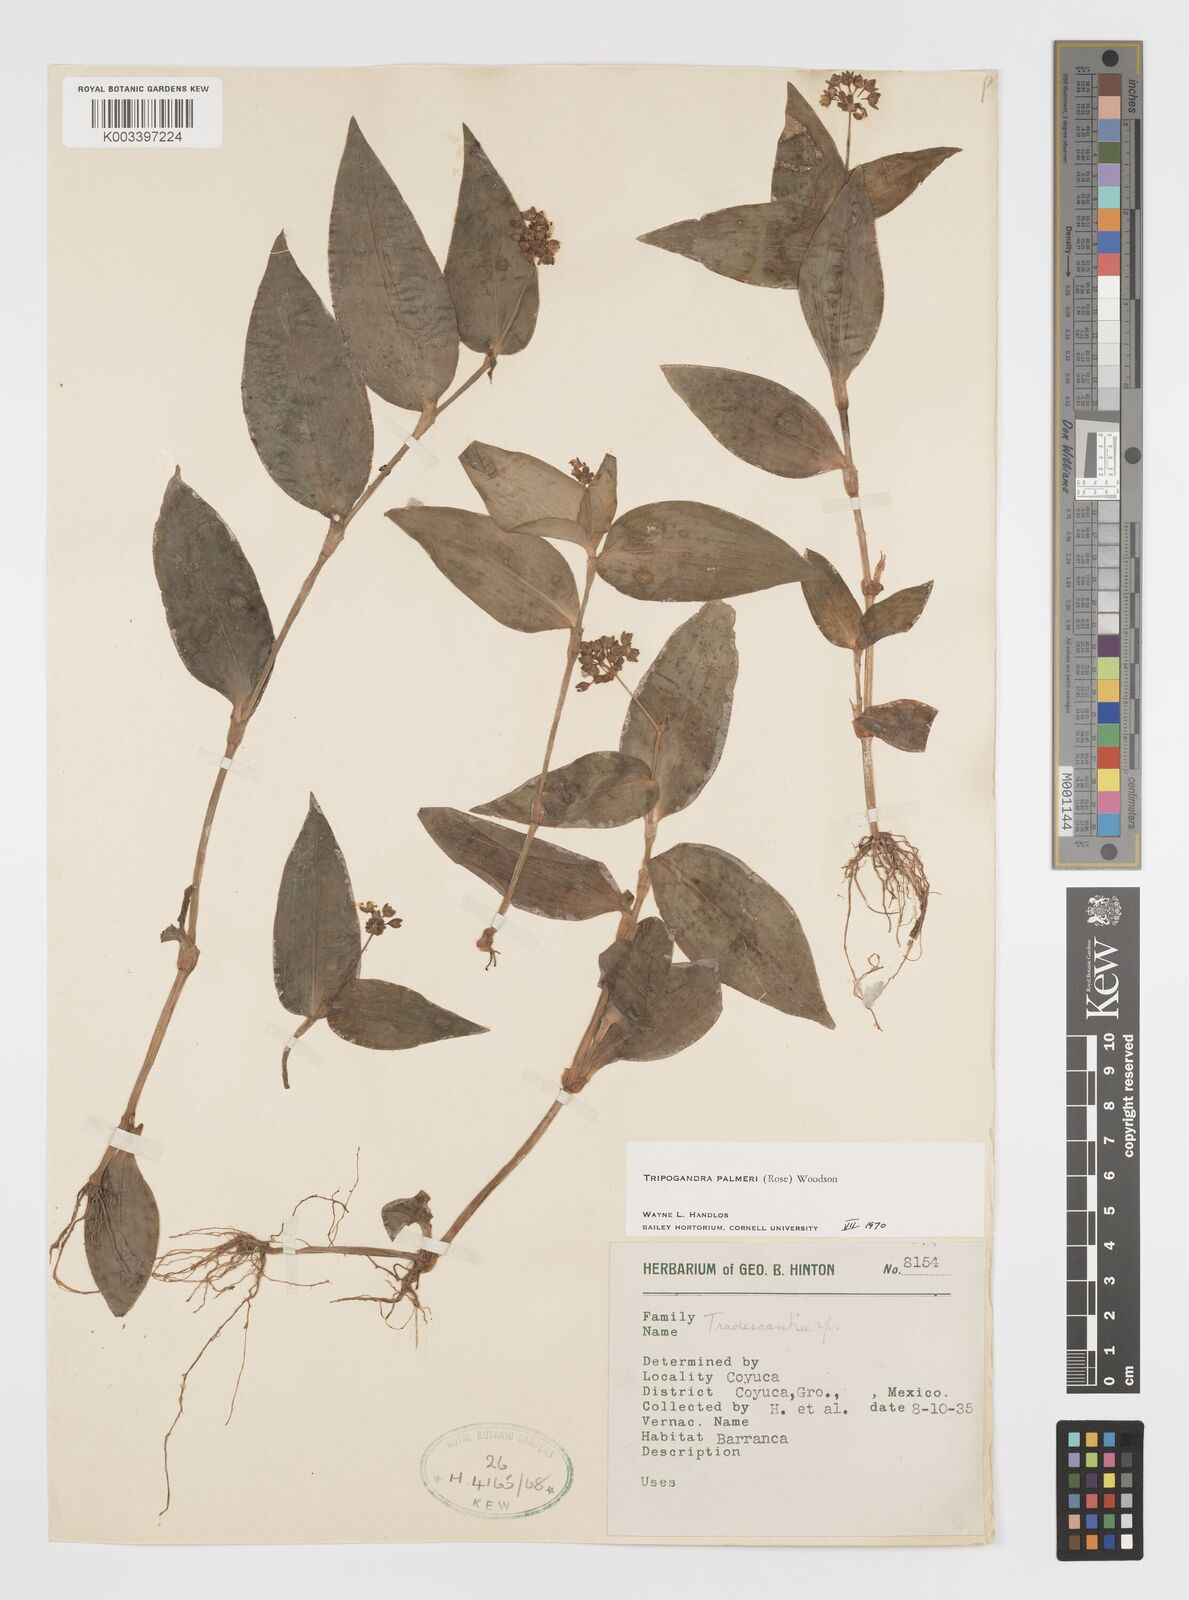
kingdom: Plantae
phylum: Tracheophyta
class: Liliopsida
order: Commelinales
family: Commelinaceae
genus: Callisia
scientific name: Callisia palmeri
